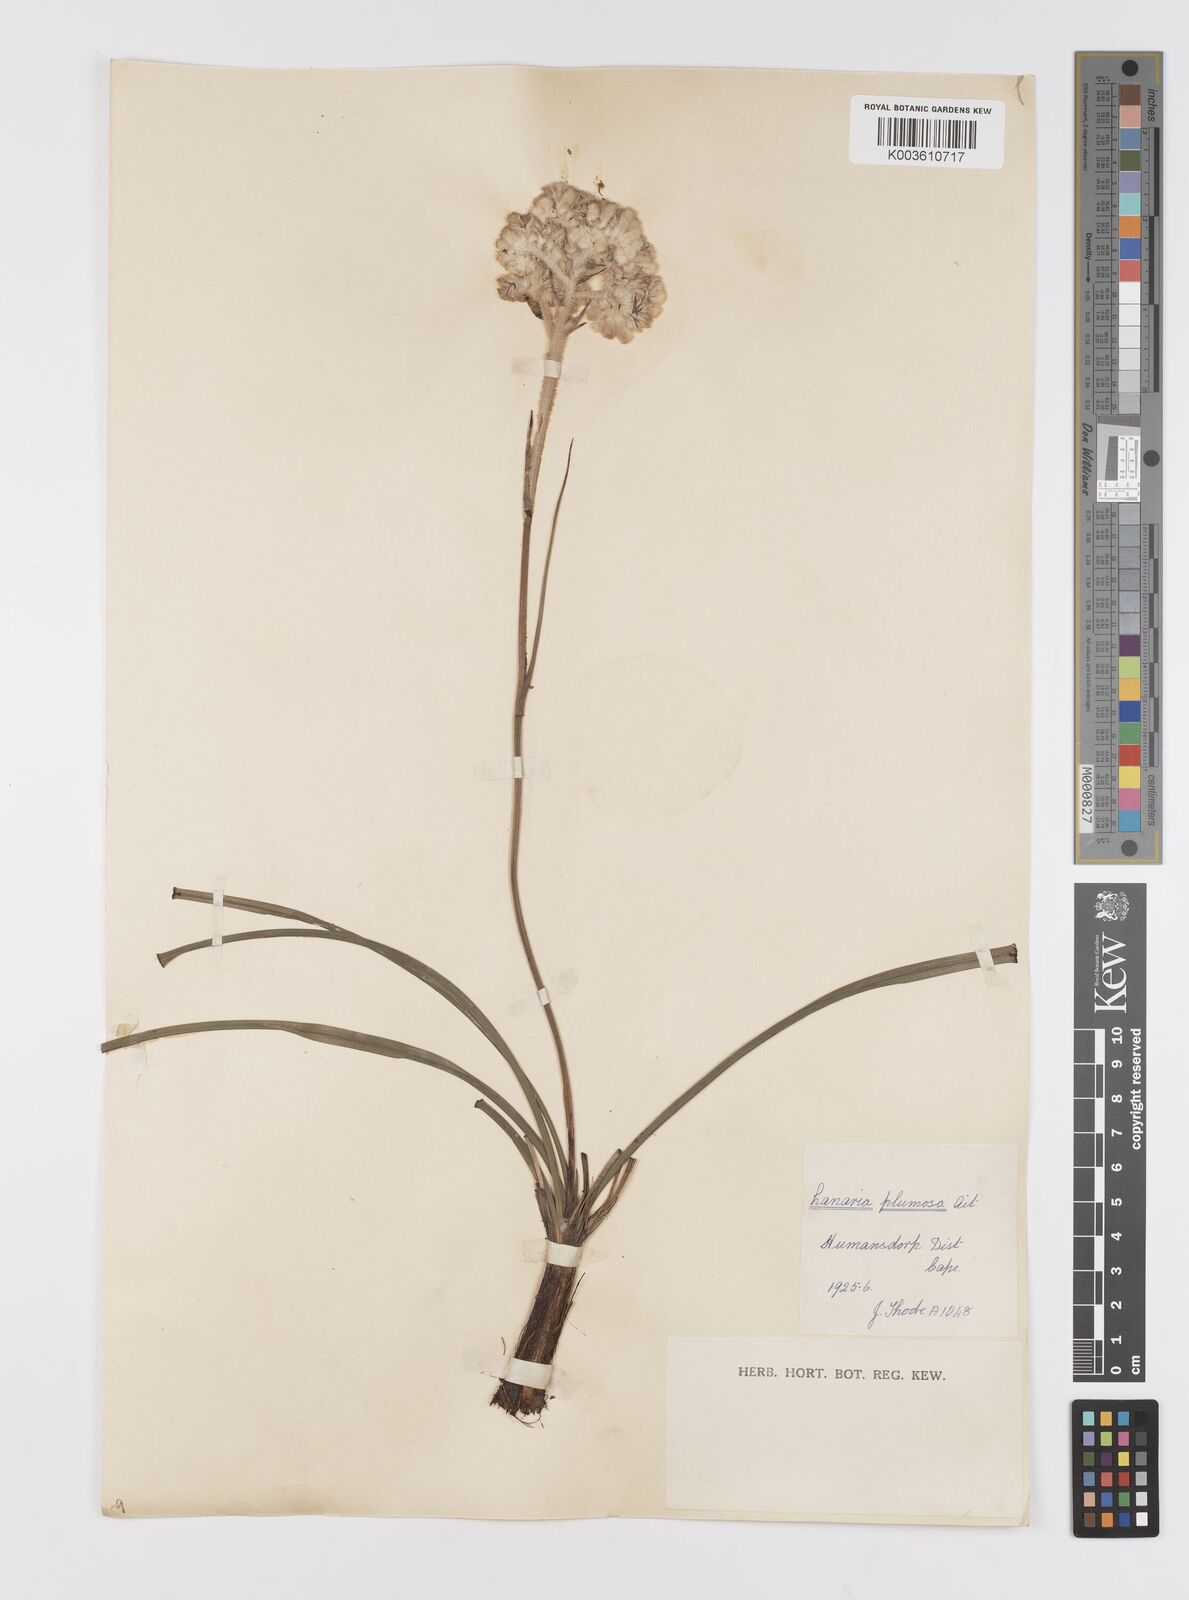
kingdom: Plantae
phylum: Tracheophyta
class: Liliopsida
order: Asparagales
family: Lanariaceae
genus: Lanaria
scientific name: Lanaria lanata
